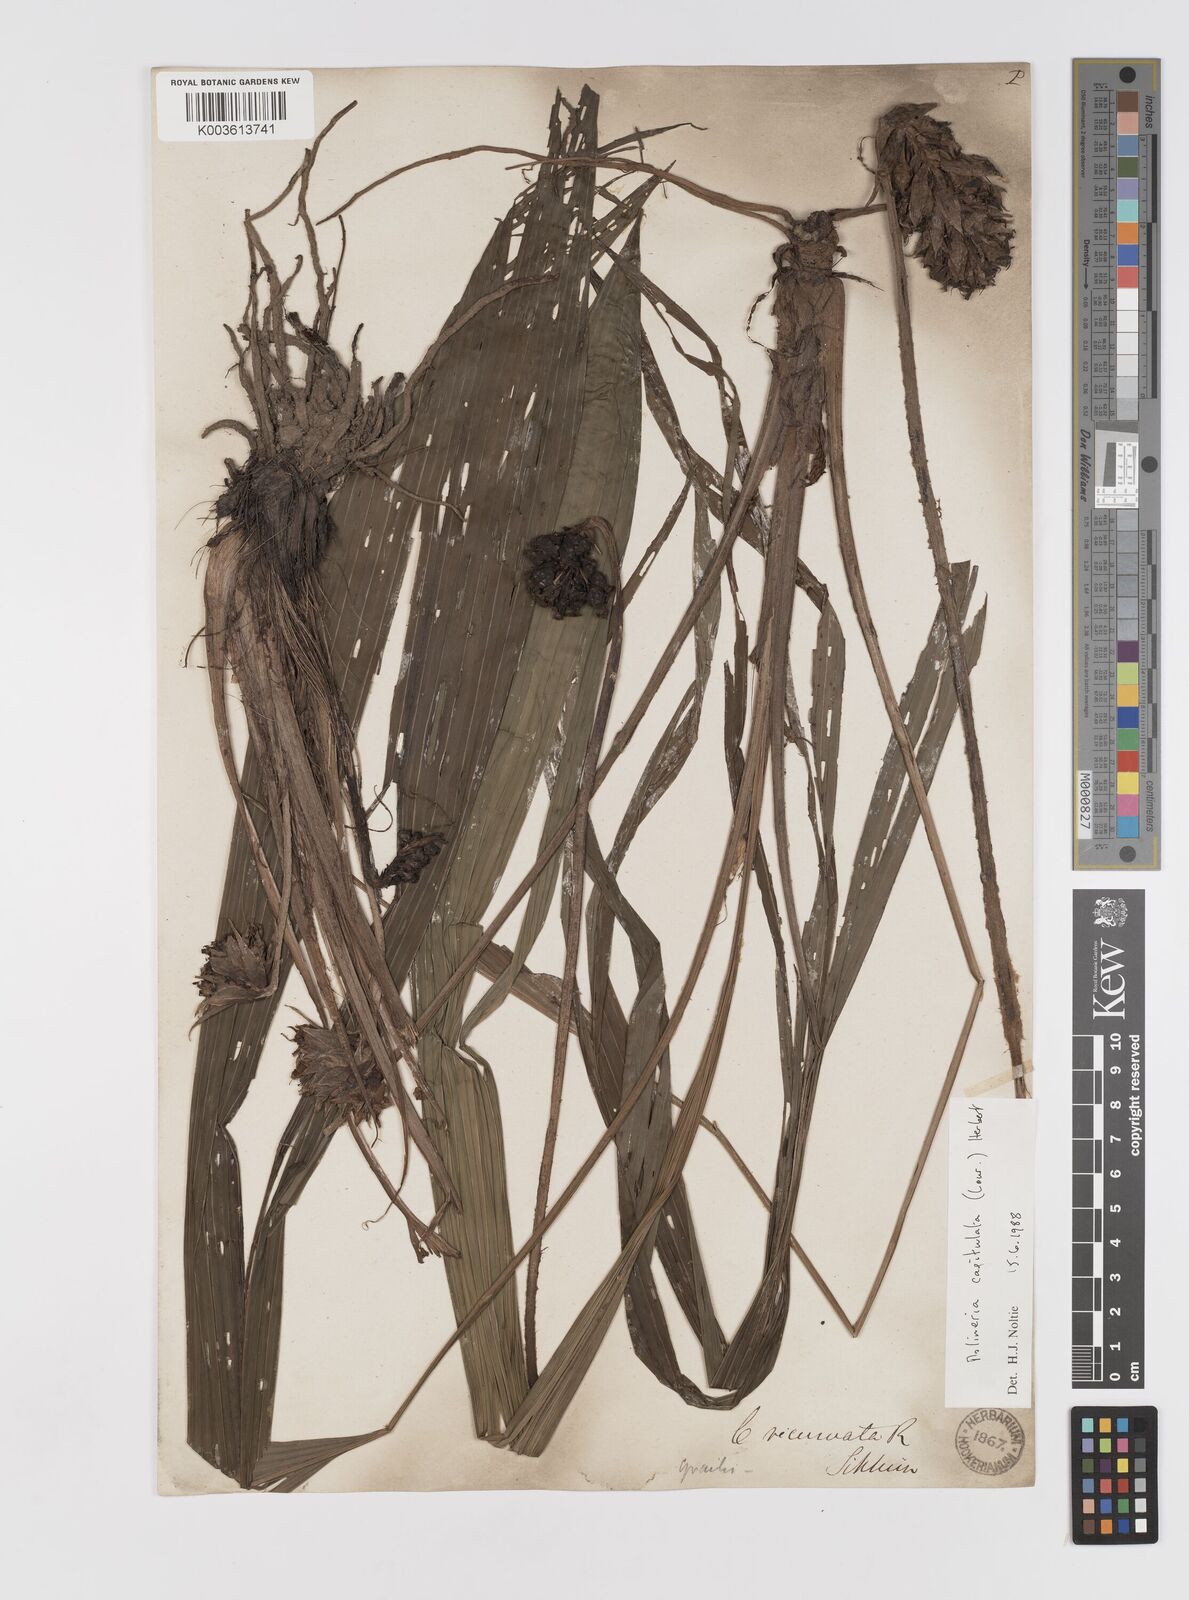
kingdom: Plantae
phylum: Tracheophyta
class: Liliopsida
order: Asparagales
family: Hypoxidaceae
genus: Curculigo
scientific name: Curculigo capitulata
